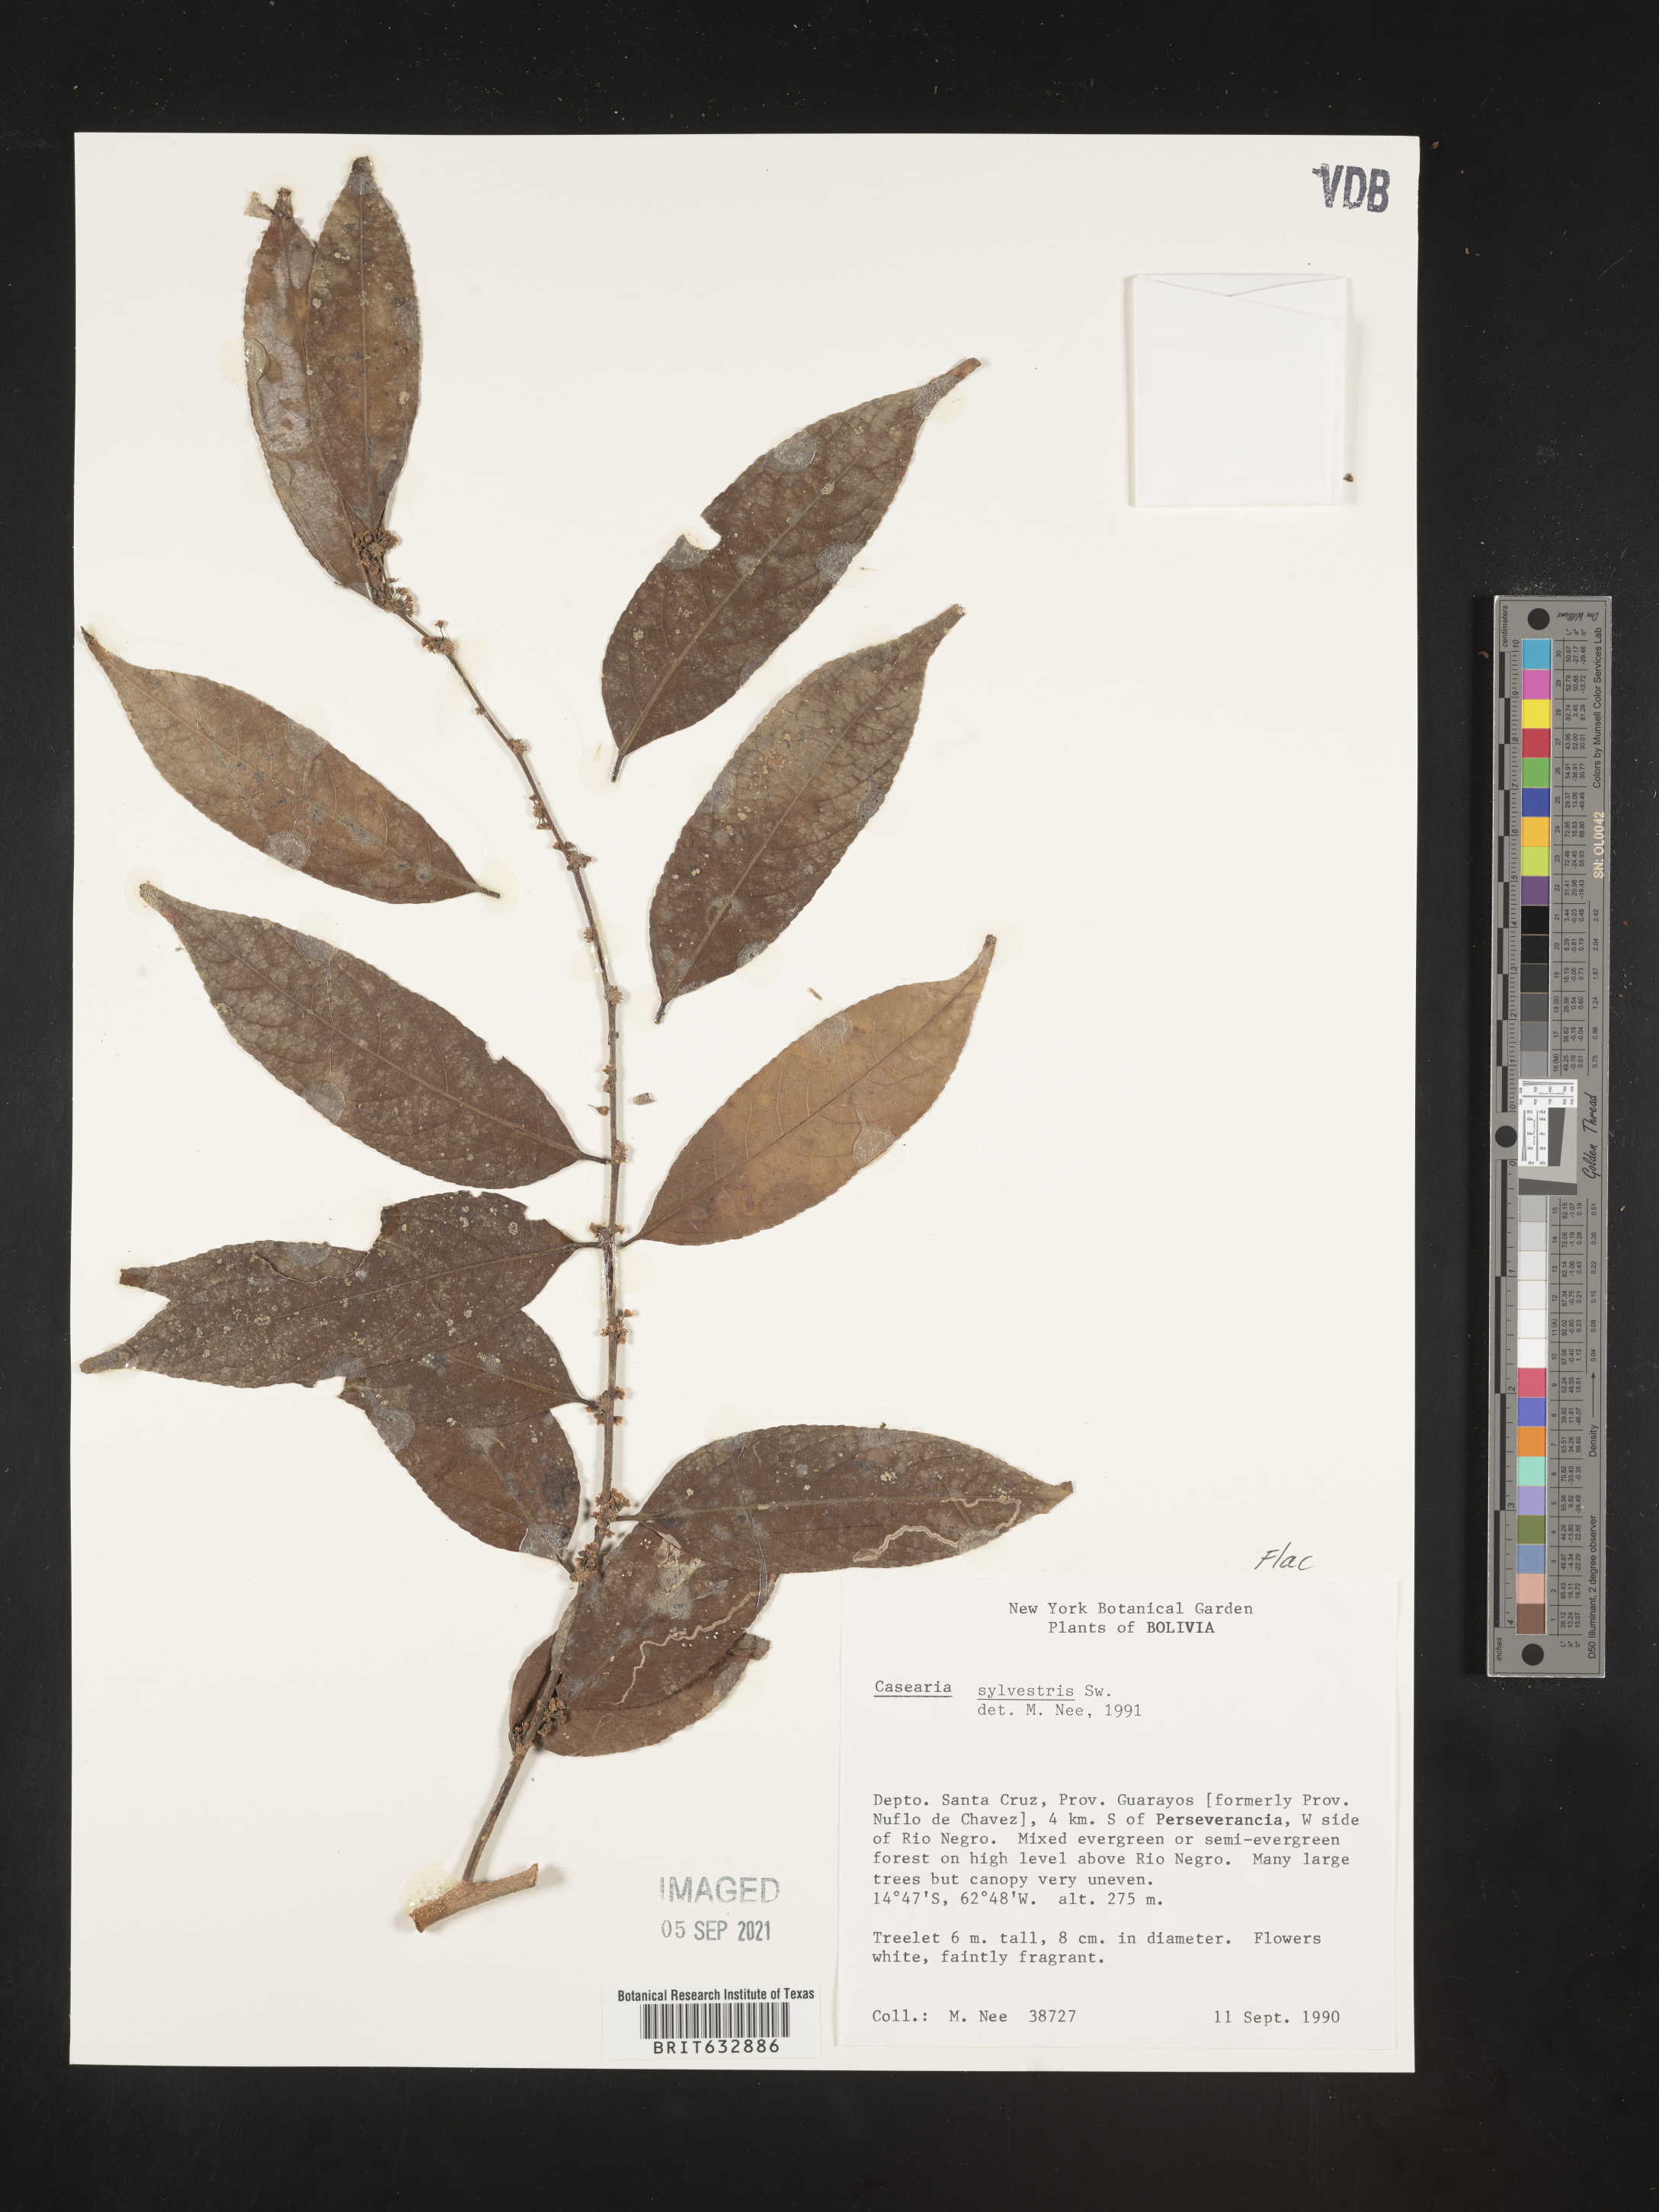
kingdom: Plantae
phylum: Tracheophyta
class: Magnoliopsida
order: Malpighiales
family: Salicaceae
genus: Casearia
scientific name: Casearia
